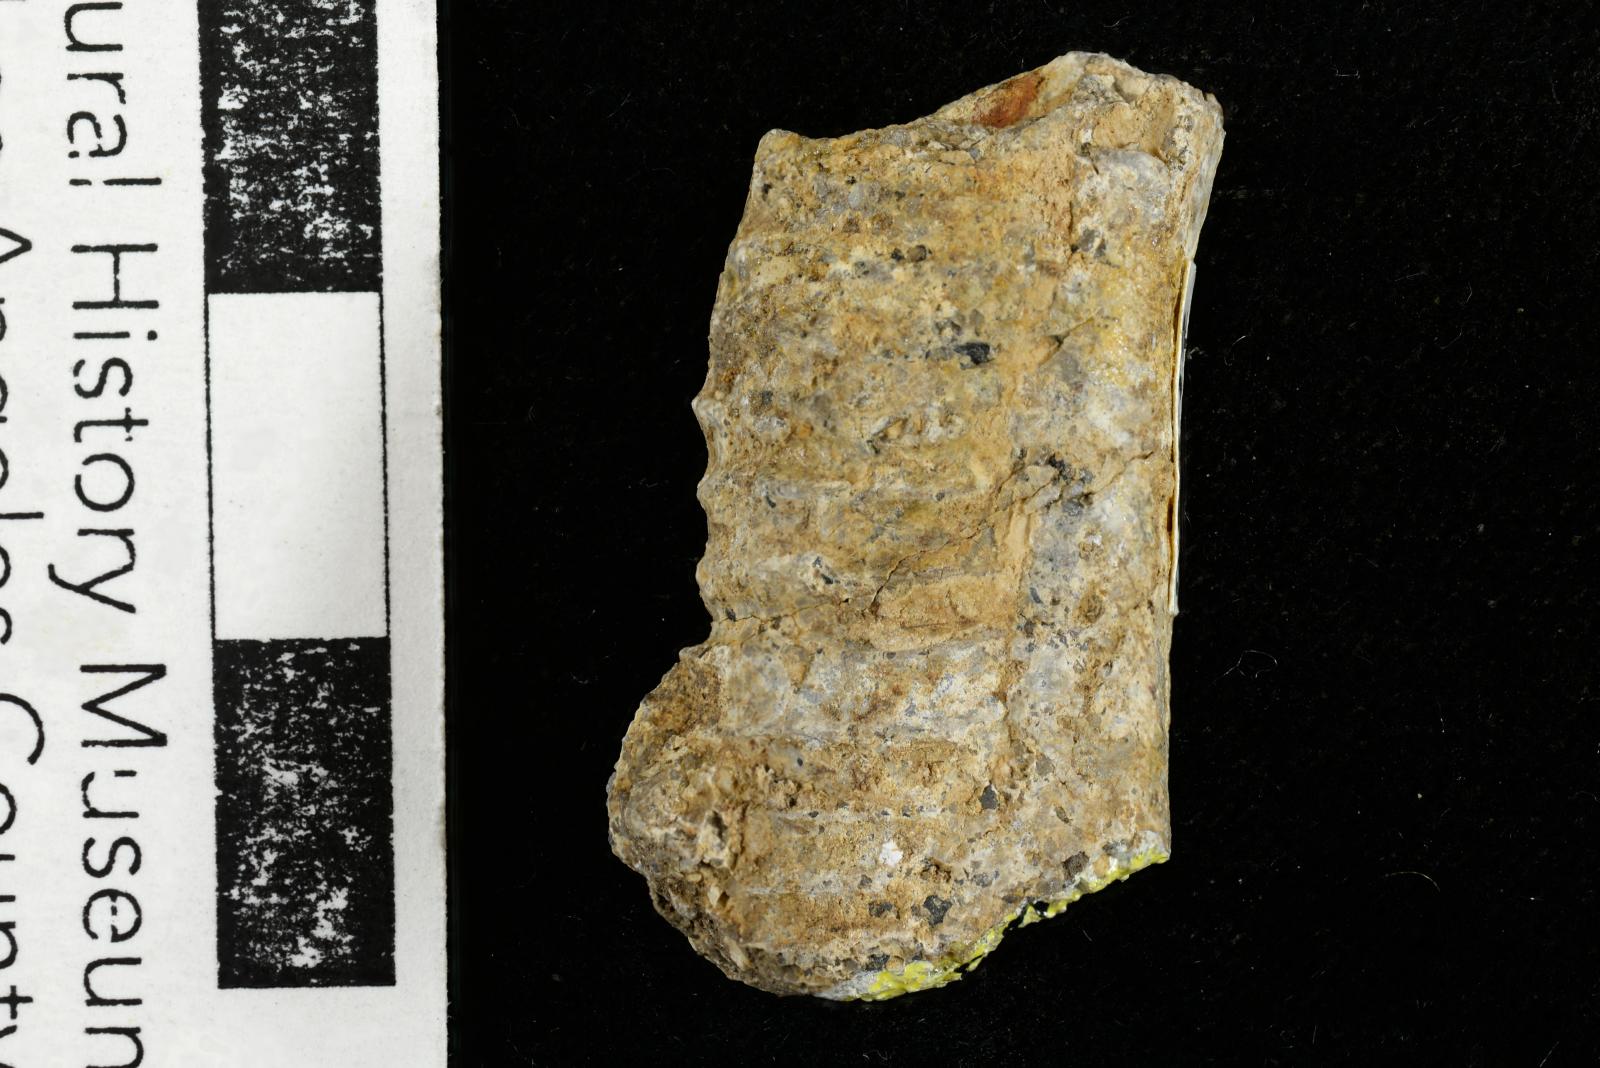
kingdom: Animalia
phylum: Mollusca
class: Cephalopoda
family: Nostoceratidae
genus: Nostoceras
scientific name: Nostoceras
